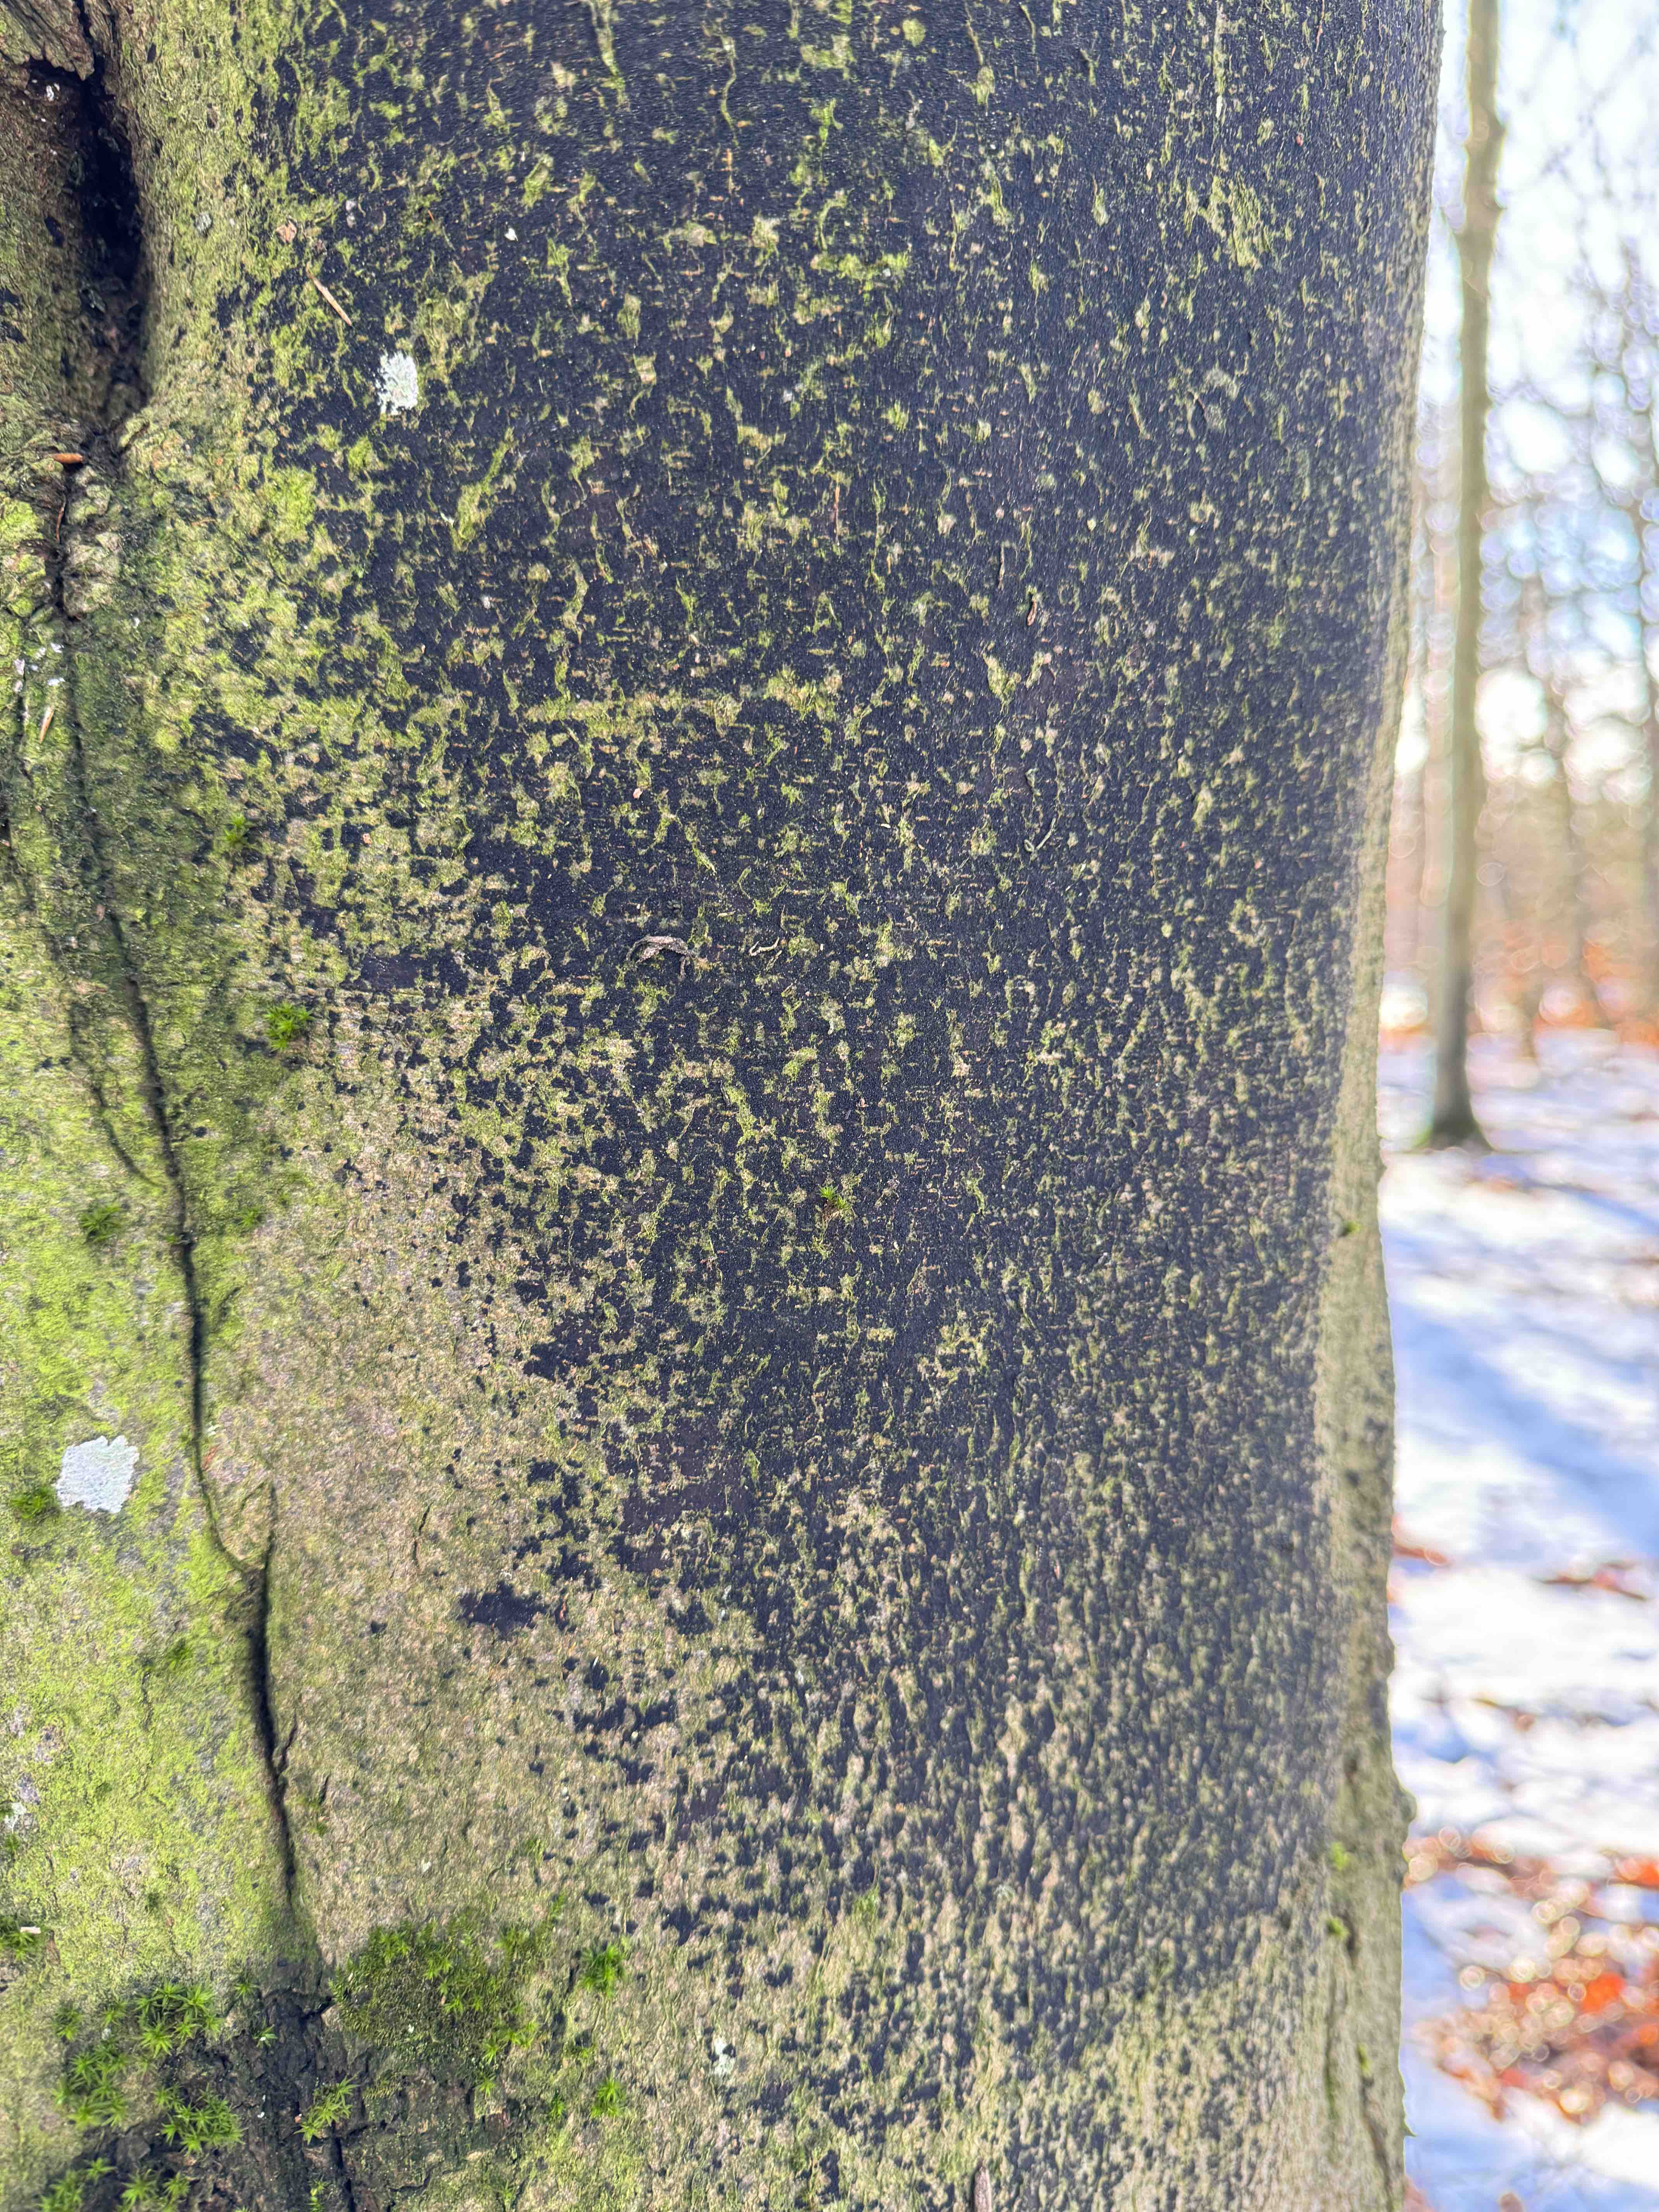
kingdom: Fungi
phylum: Ascomycota
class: Leotiomycetes
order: Rhytismatales
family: Ascodichaenaceae
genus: Ascodichaena
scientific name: Ascodichaena rugosa
